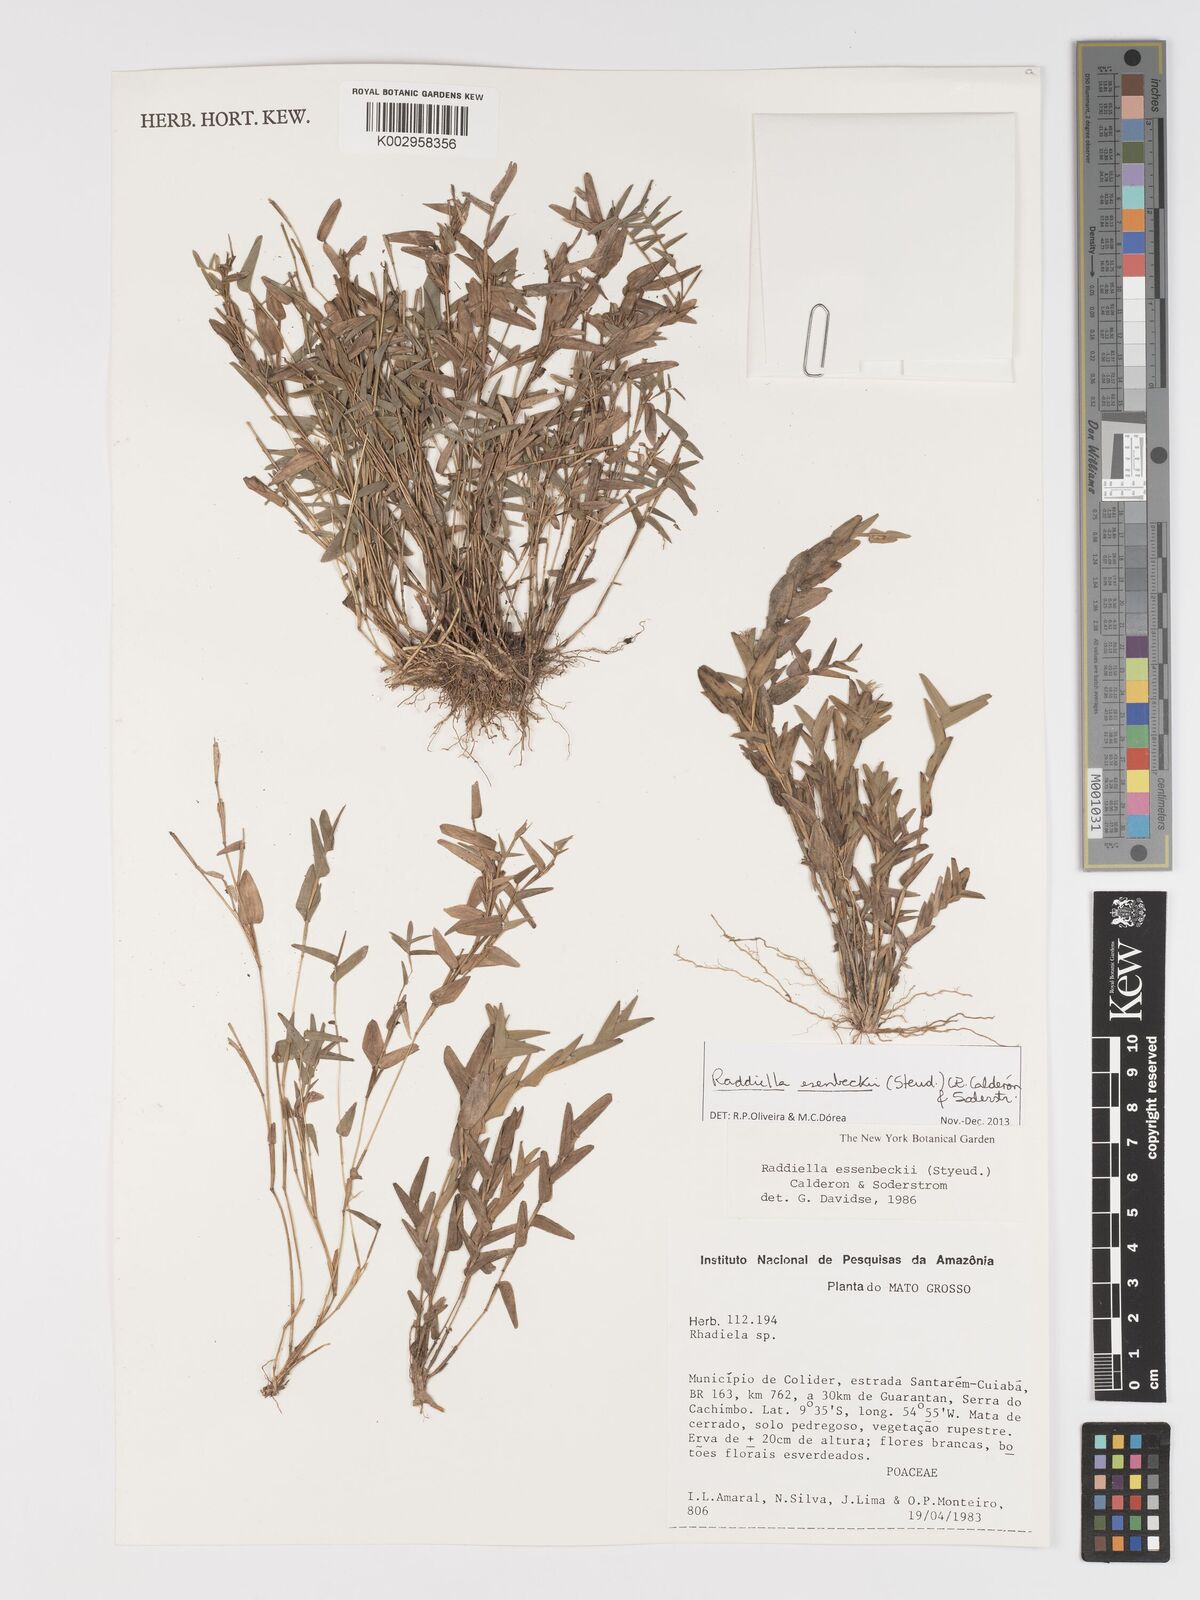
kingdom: Plantae
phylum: Tracheophyta
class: Liliopsida
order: Poales
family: Poaceae
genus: Raddiella
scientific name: Raddiella esenbeckii
